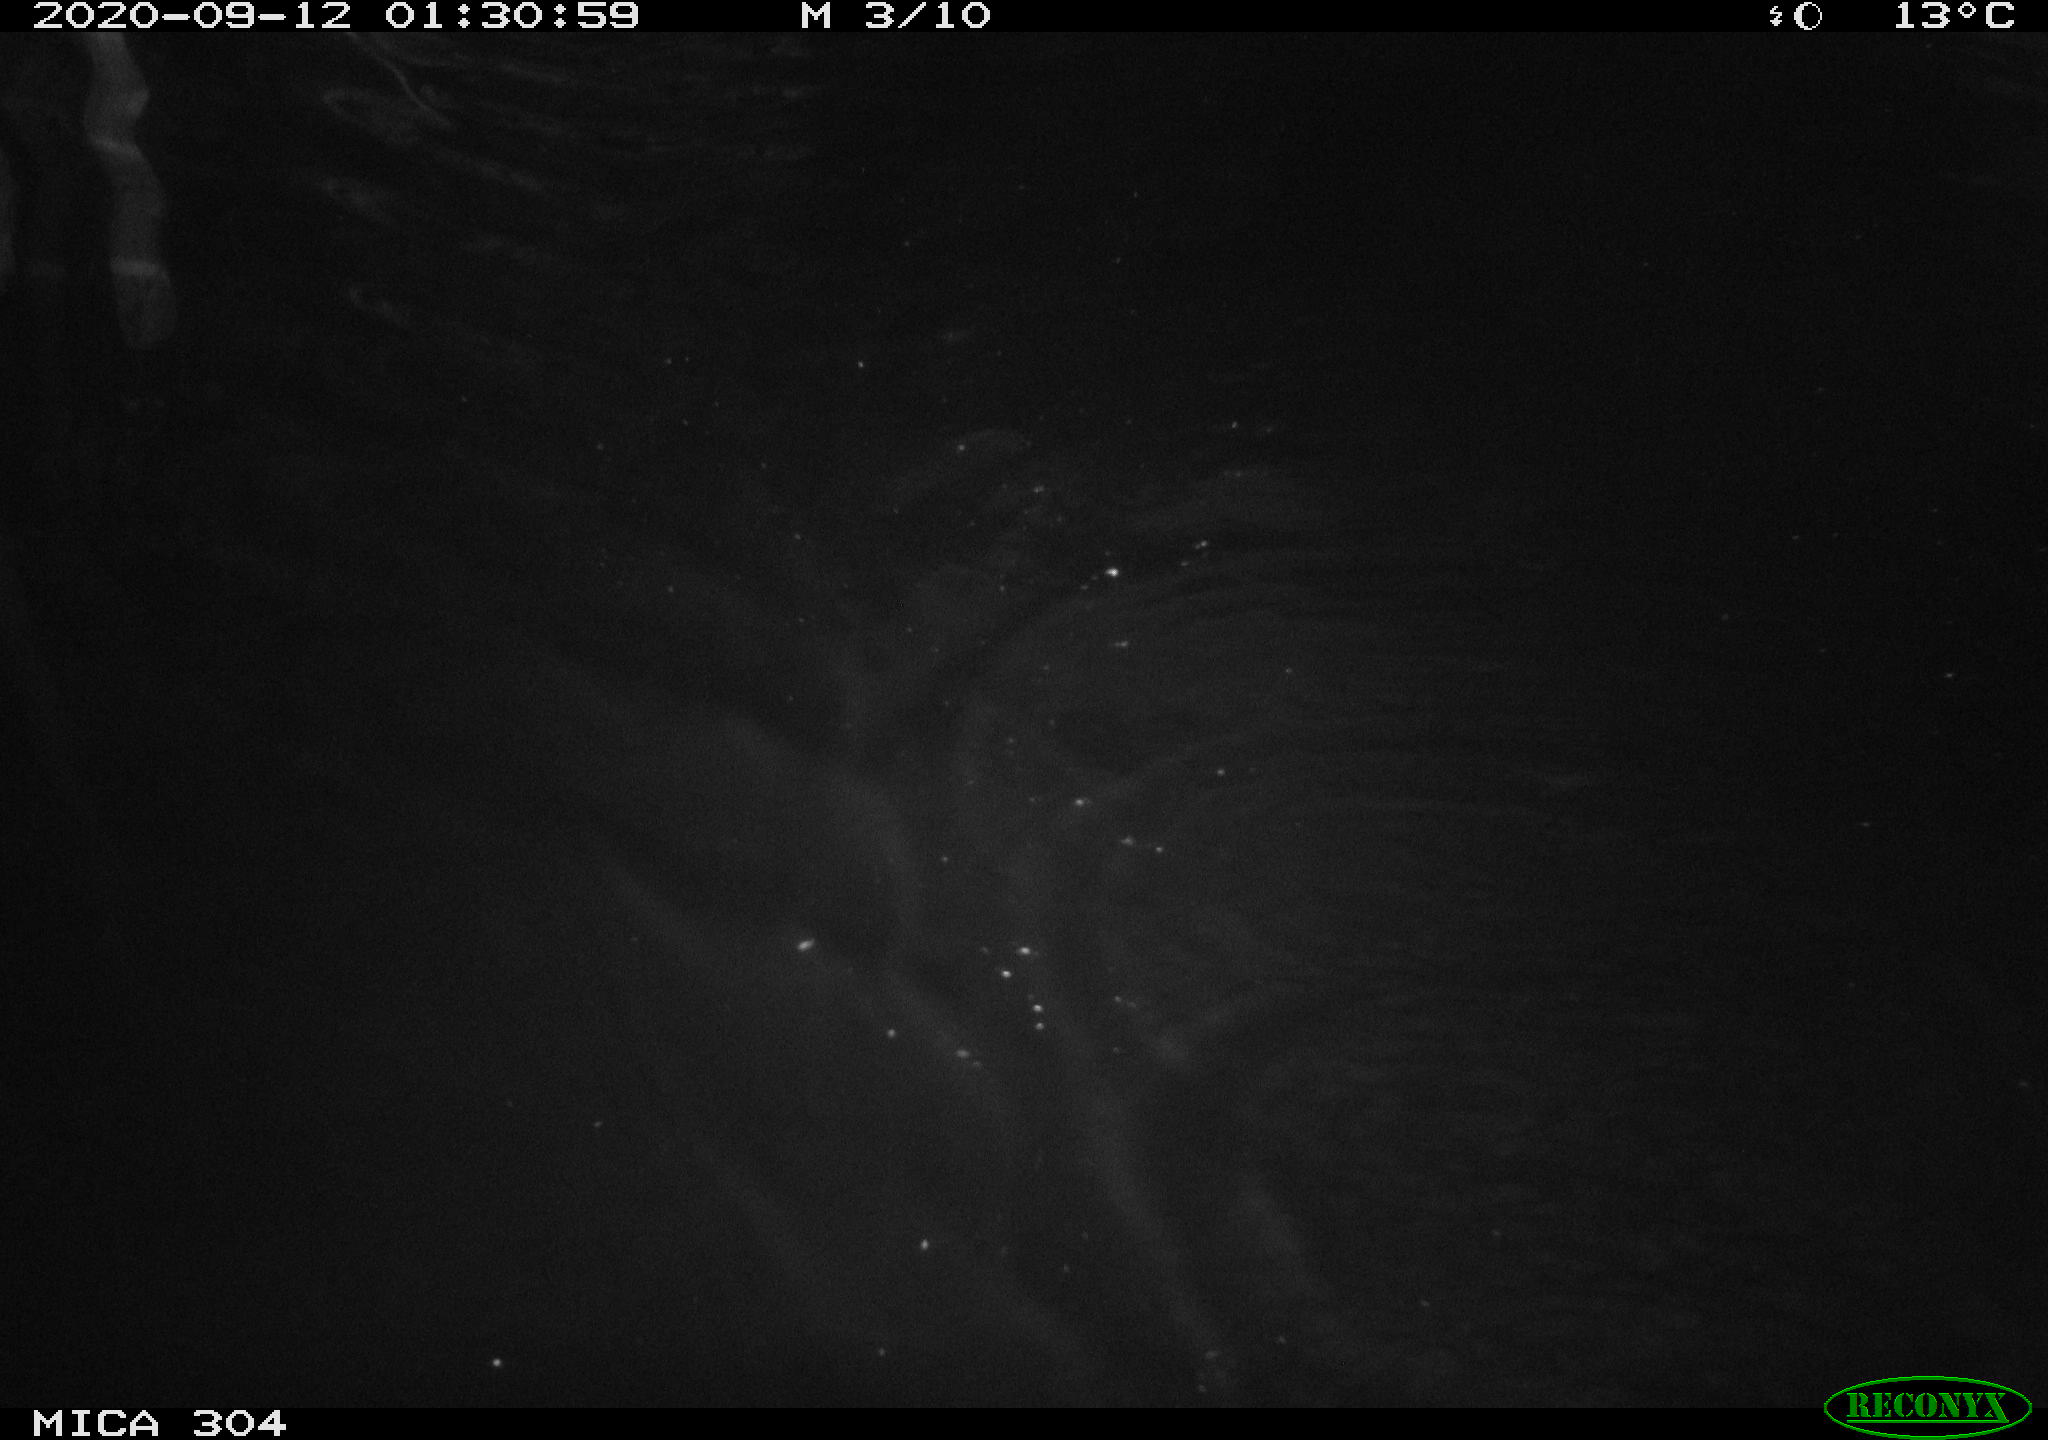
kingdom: Animalia
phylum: Chordata
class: Mammalia
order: Rodentia
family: Cricetidae
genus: Ondatra
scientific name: Ondatra zibethicus
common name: Muskrat
